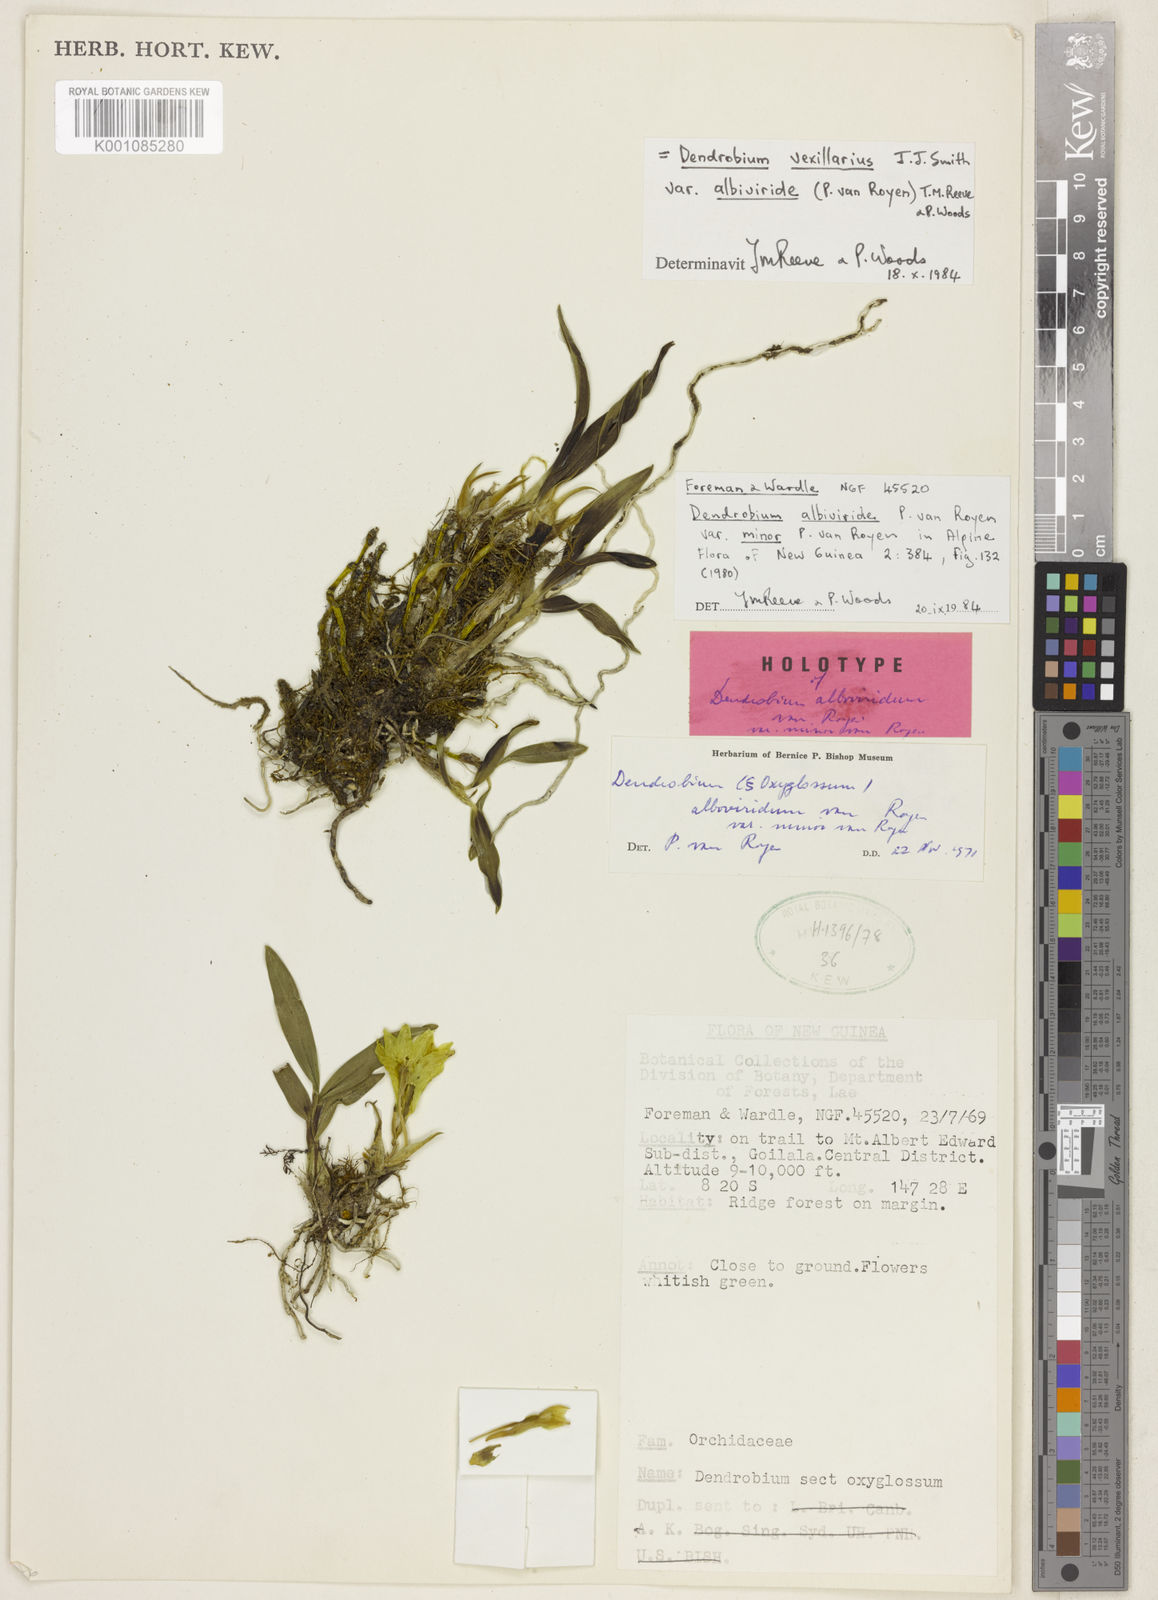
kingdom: Plantae
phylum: Tracheophyta
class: Liliopsida
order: Asparagales
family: Orchidaceae
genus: Dendrobium
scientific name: Dendrobium vexillarius
